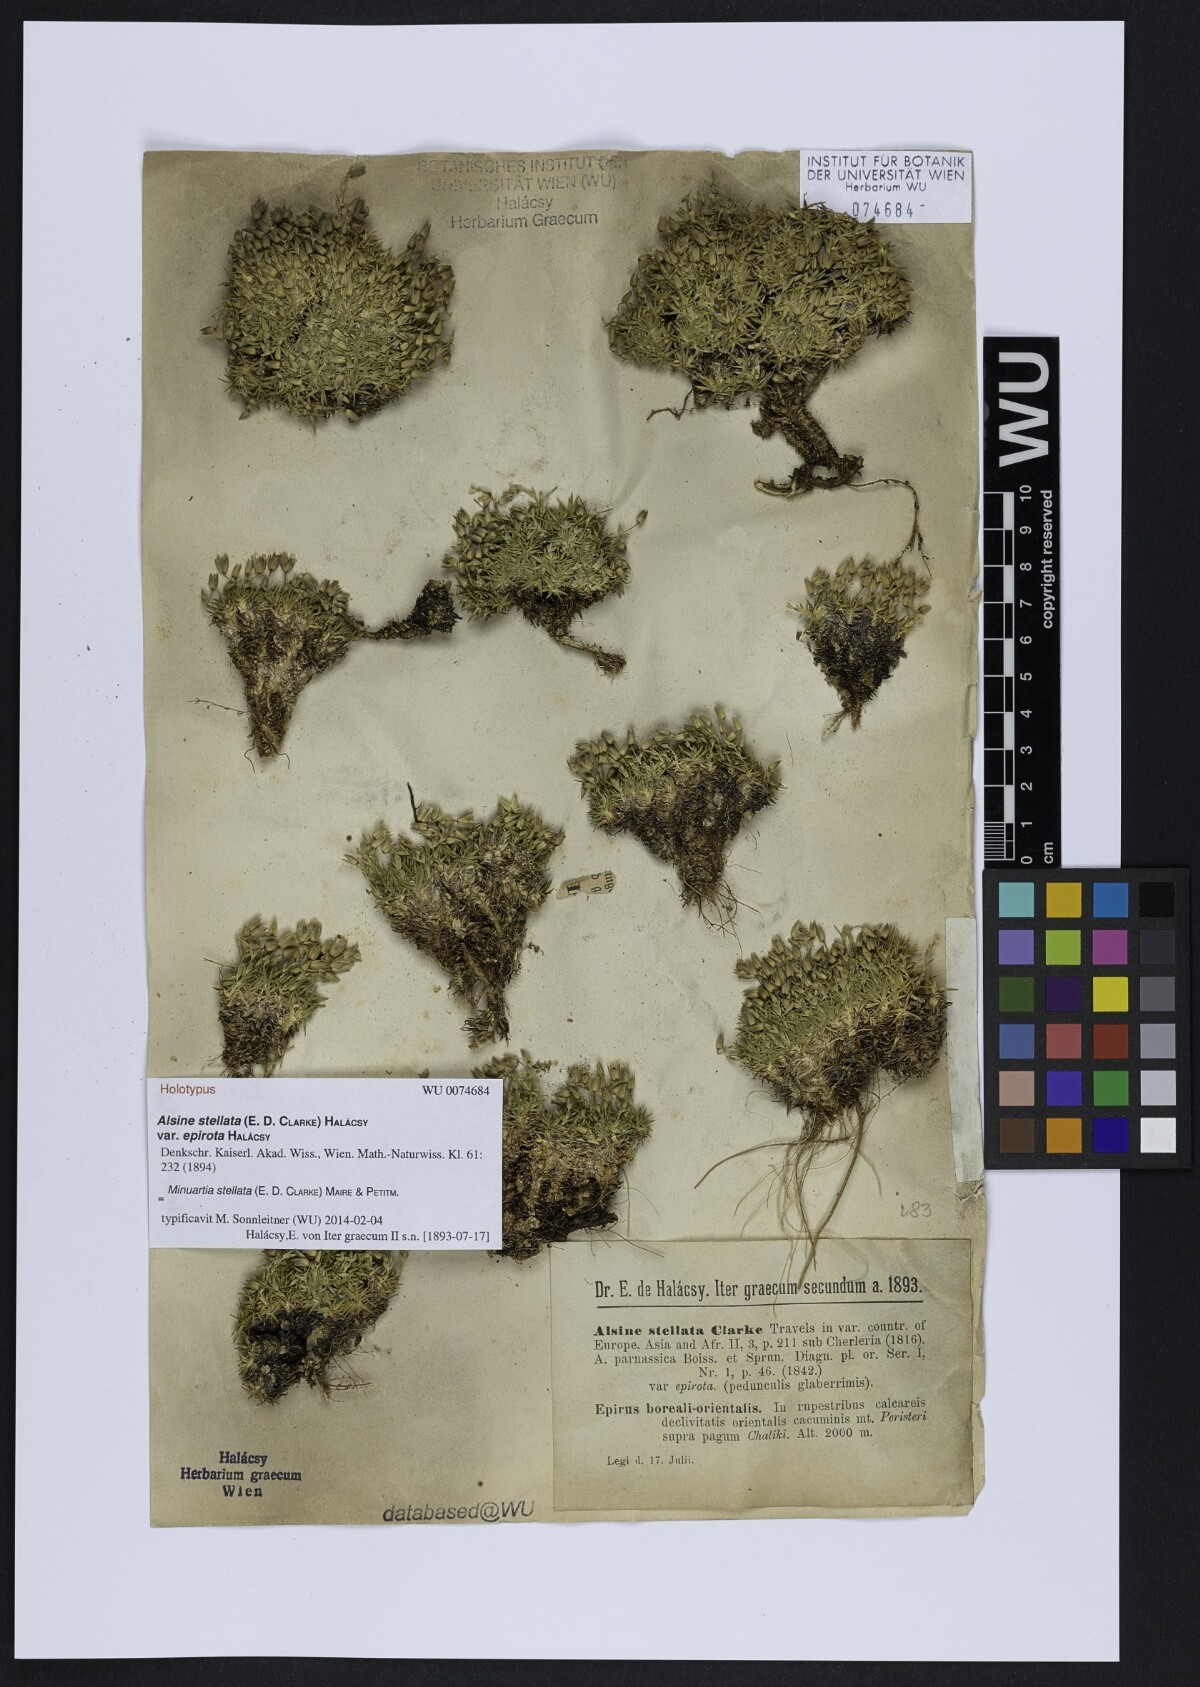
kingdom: Plantae
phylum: Tracheophyta
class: Magnoliopsida
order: Caryophyllales
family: Caryophyllaceae
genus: Mcneillia
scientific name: Mcneillia stellata
